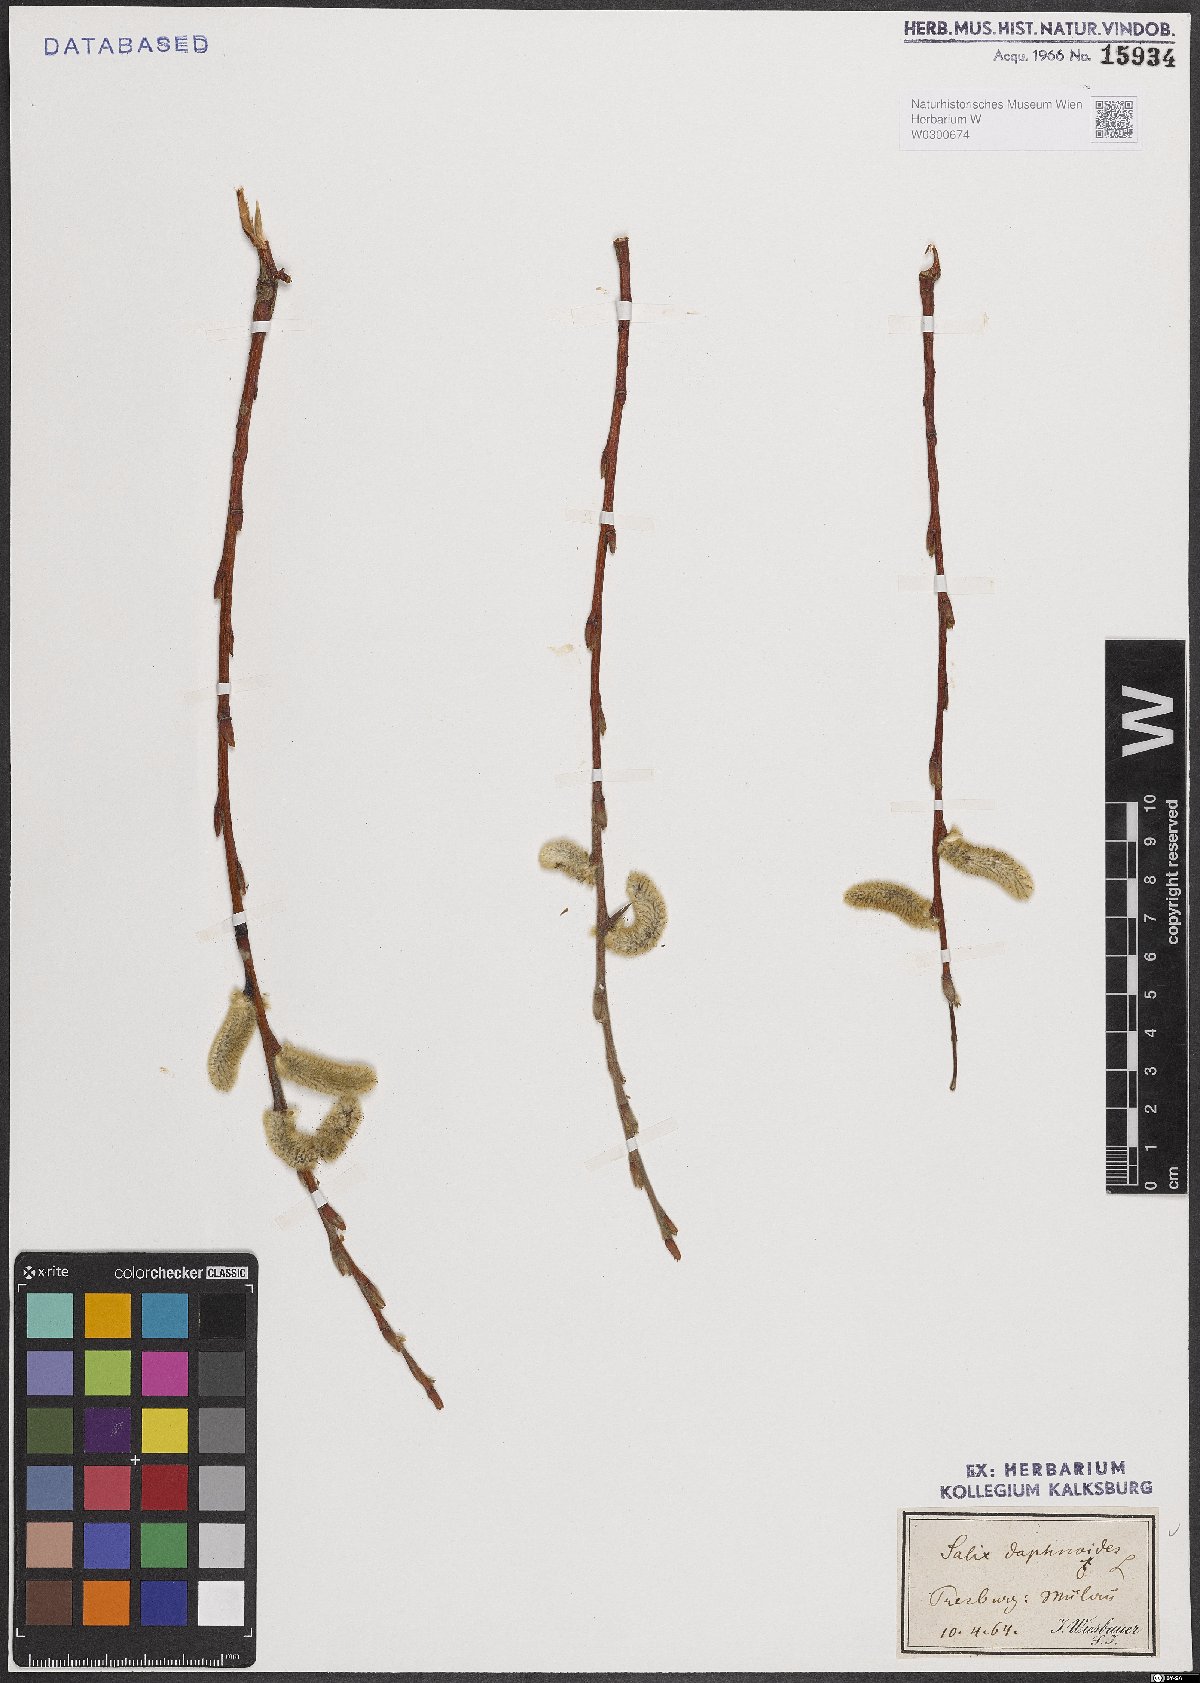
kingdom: Plantae
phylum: Tracheophyta
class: Magnoliopsida
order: Malpighiales
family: Salicaceae
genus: Salix
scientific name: Salix daphnoides
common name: European violet-willow
